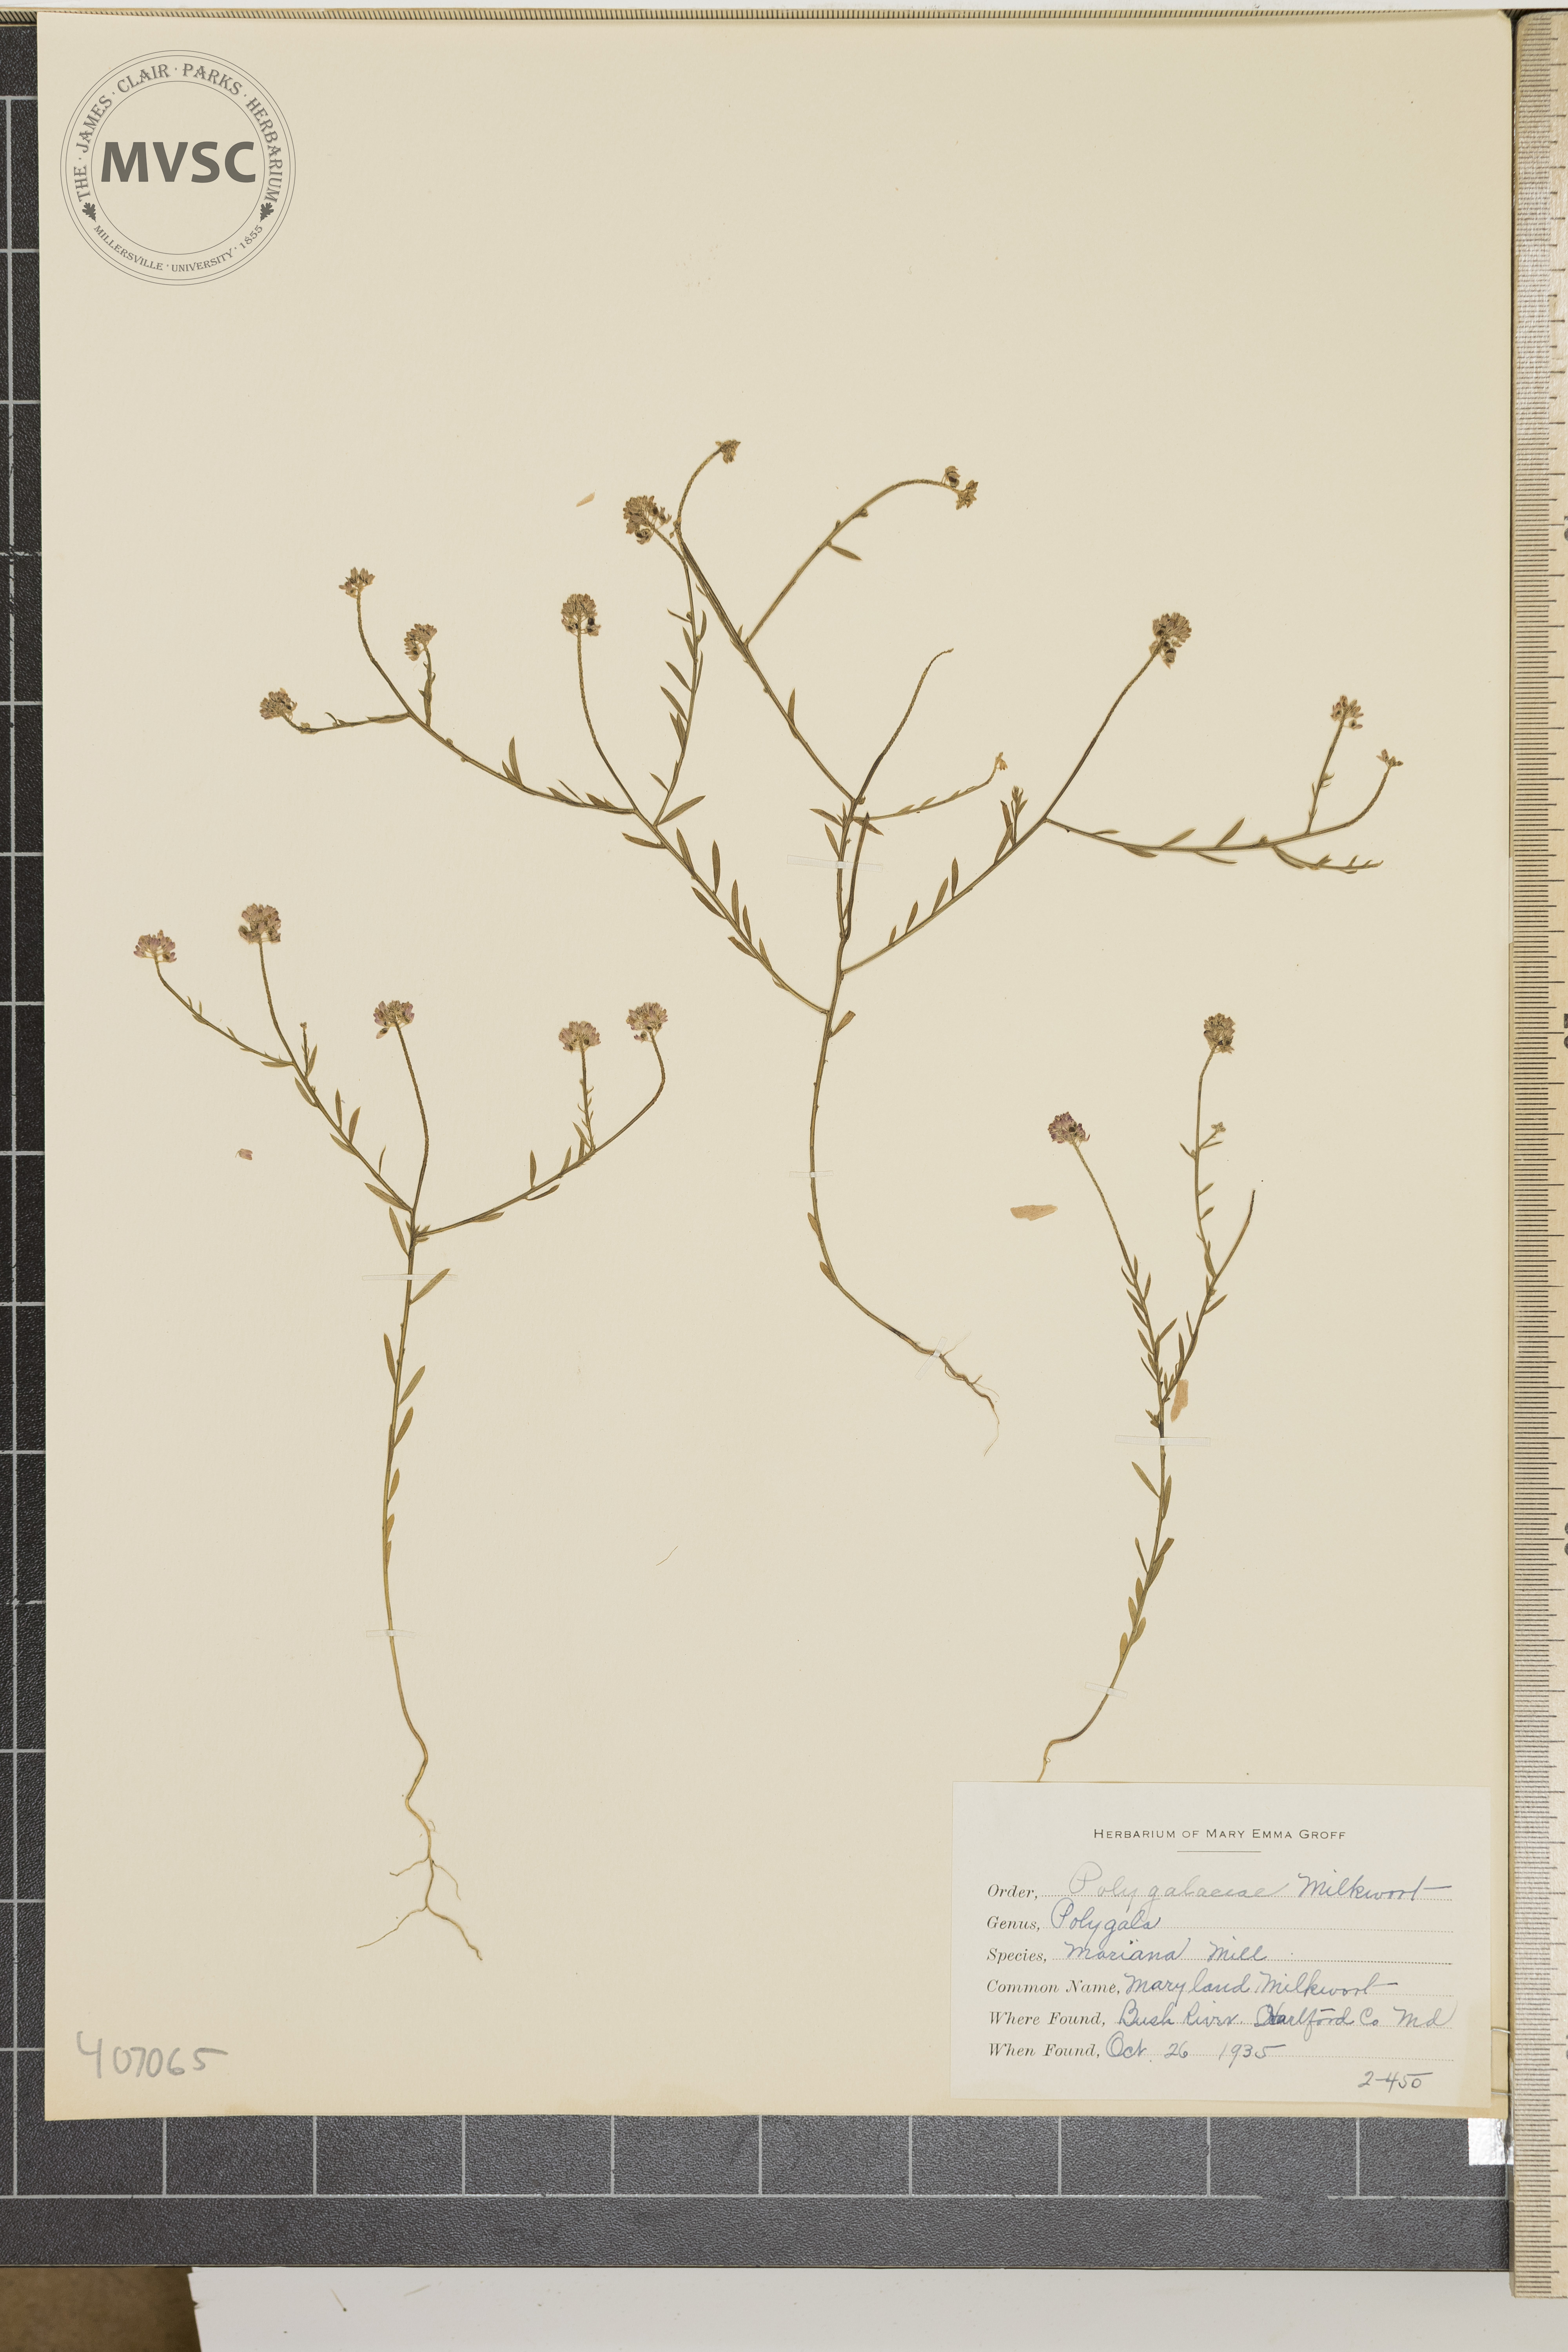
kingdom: Plantae
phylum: Tracheophyta
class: Magnoliopsida
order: Fabales
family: Polygalaceae
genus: Polygala
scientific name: Polygala mariana
